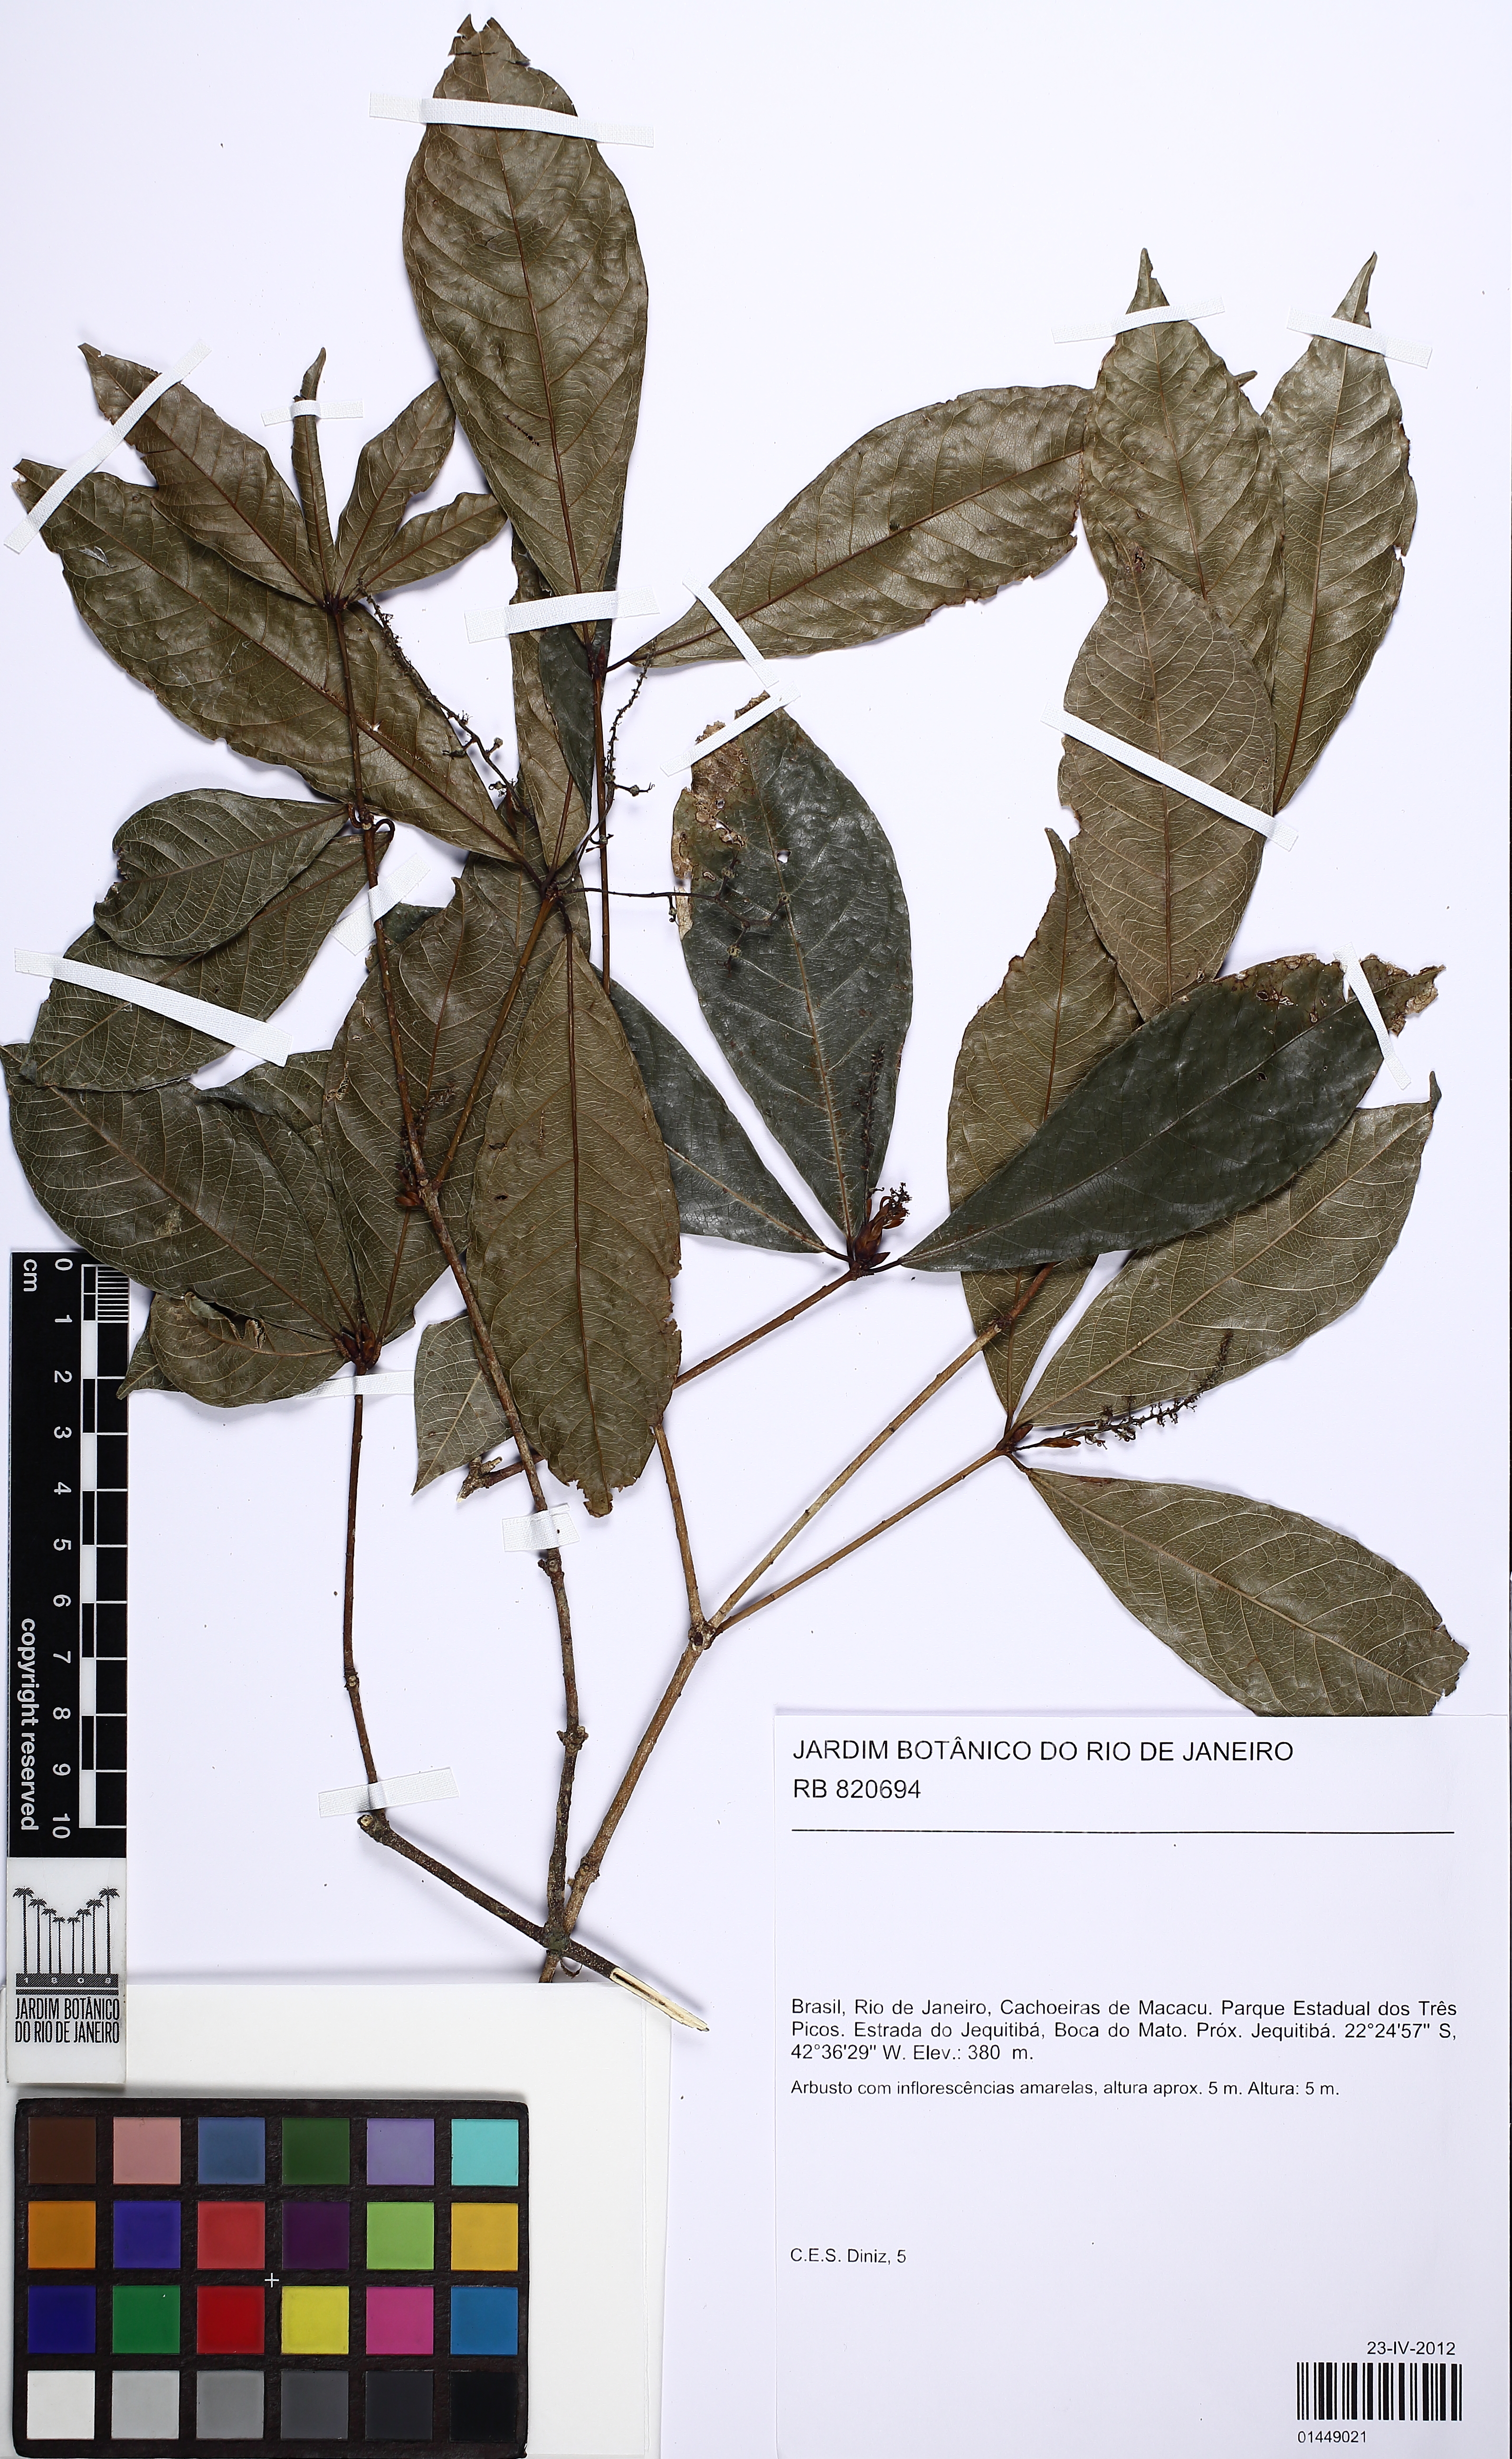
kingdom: Plantae
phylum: Tracheophyta
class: Magnoliopsida
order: Malpighiales
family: Euphorbiaceae
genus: Actinostemon
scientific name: Actinostemon
